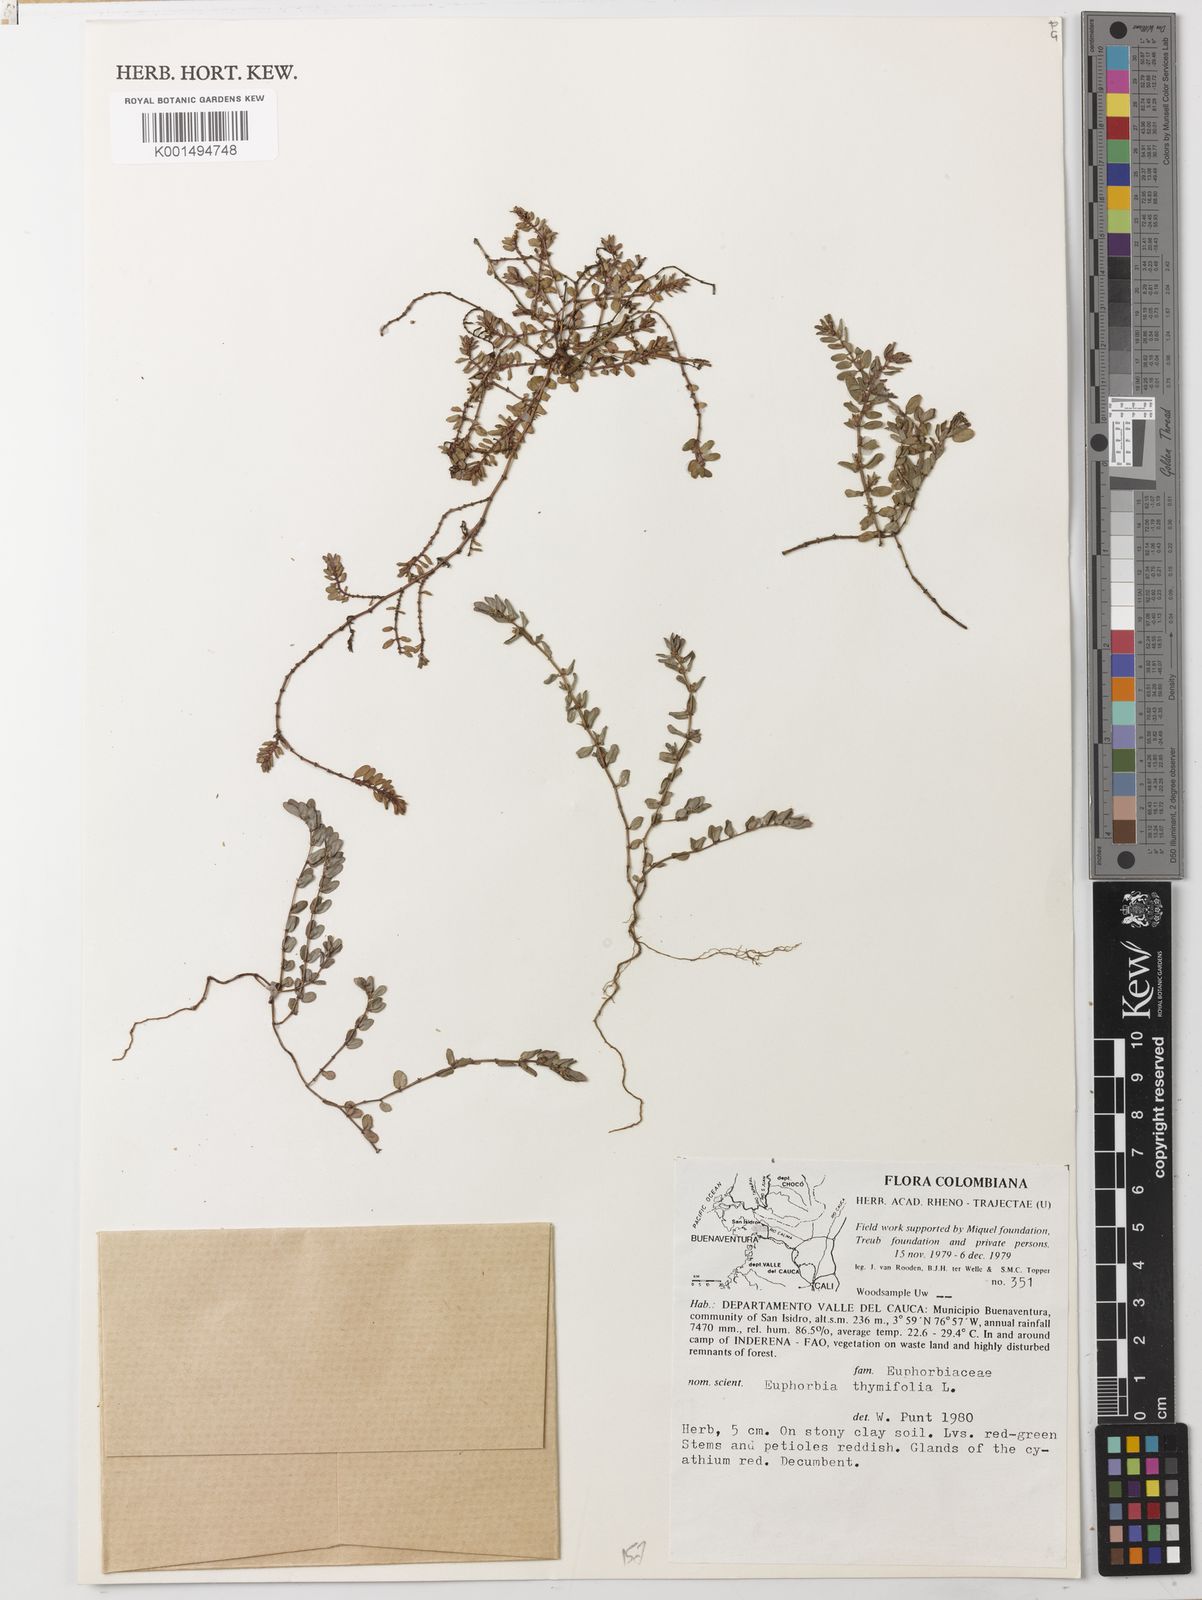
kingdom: Plantae
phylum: Tracheophyta
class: Magnoliopsida
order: Malpighiales
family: Euphorbiaceae
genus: Euphorbia
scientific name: Euphorbia thymifolia
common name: Gulf sandmat
